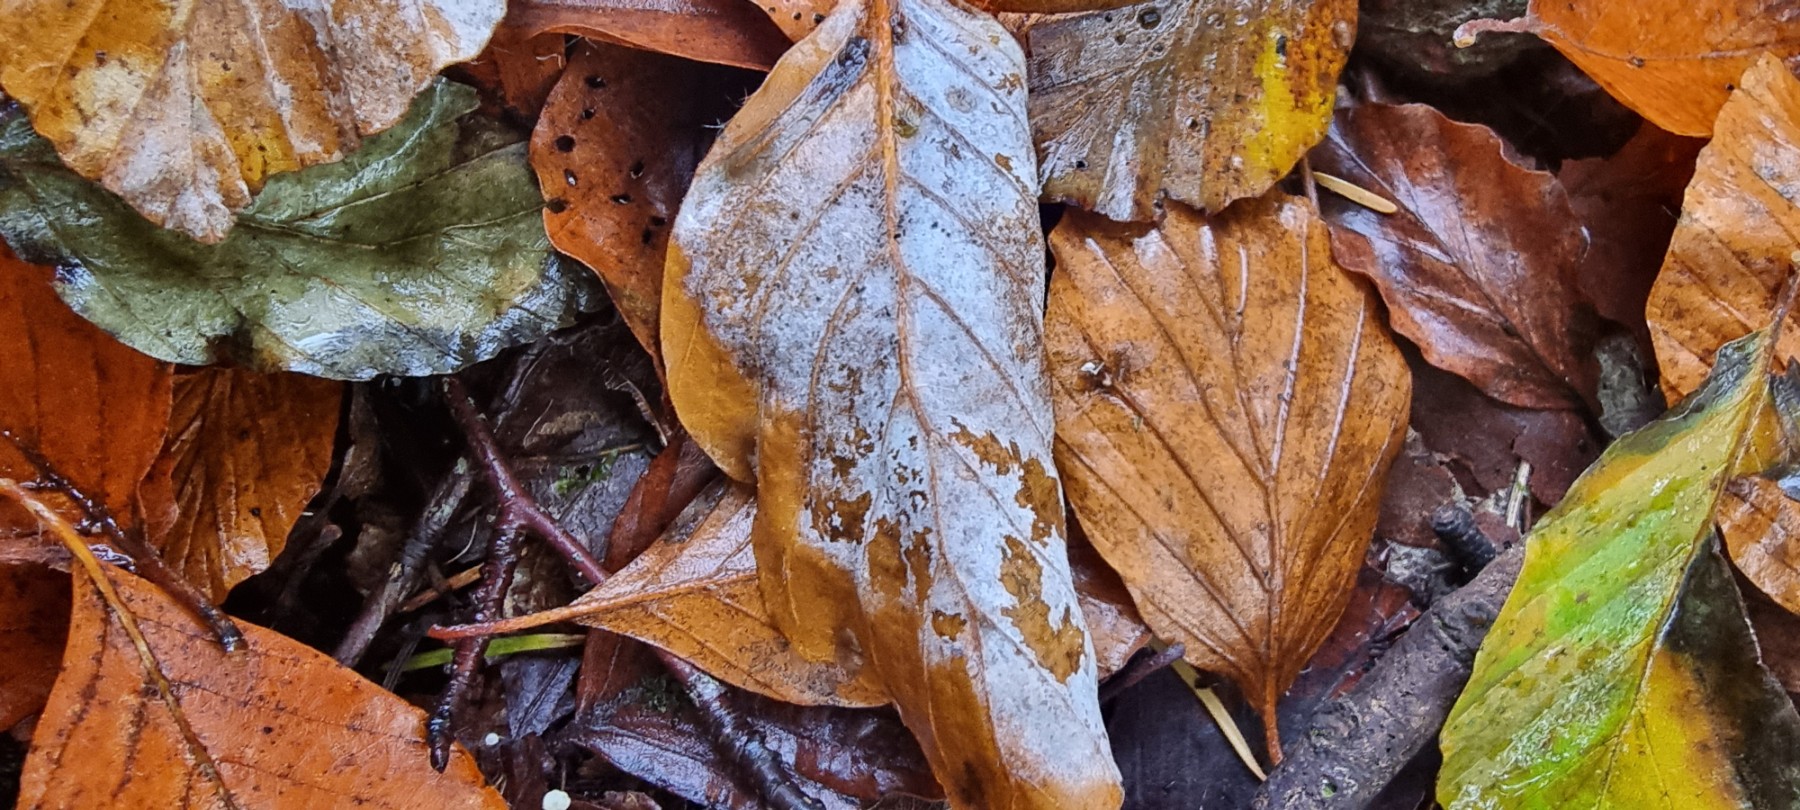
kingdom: Fungi
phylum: Ascomycota
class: Leotiomycetes
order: Helotiales
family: Erysiphaceae
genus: Phyllactinia
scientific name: Phyllactinia orbicularis
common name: bøge-meldug
